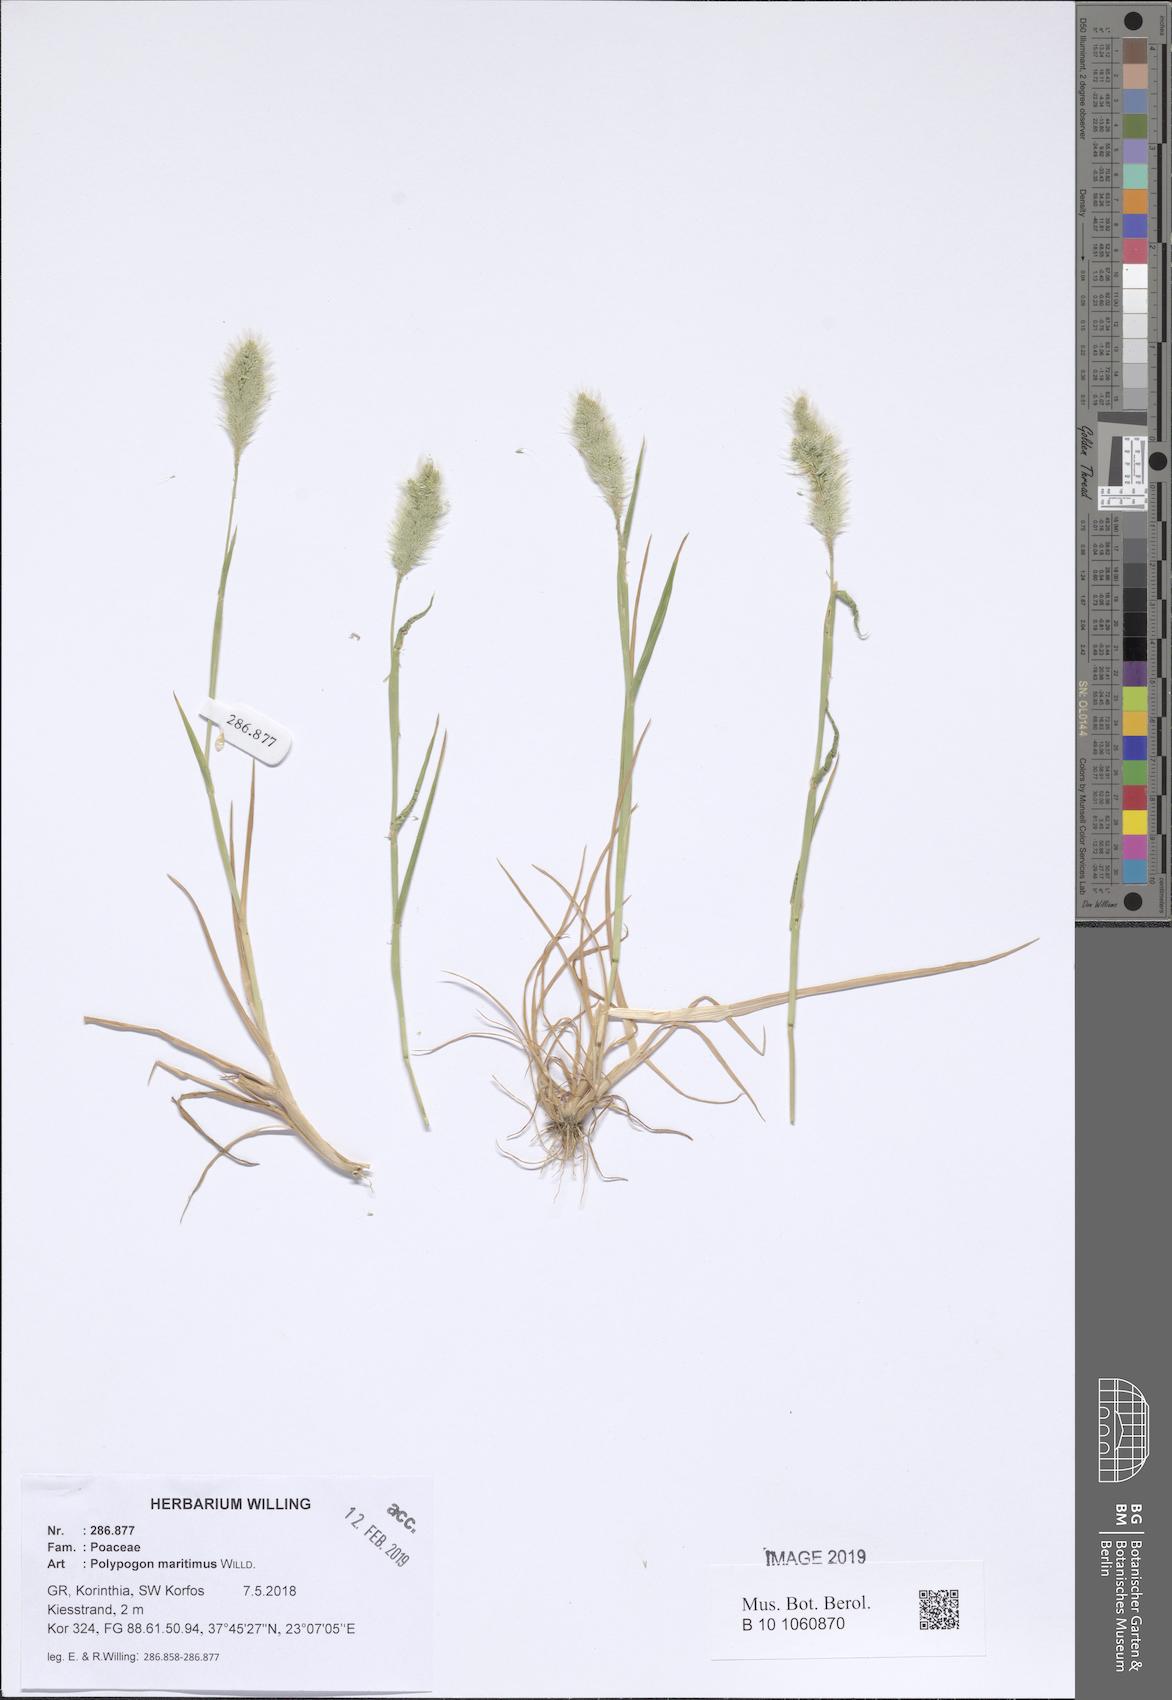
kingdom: Plantae
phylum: Tracheophyta
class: Liliopsida
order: Poales
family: Poaceae
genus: Polypogon
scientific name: Polypogon maritimus
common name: Mediterranean rabbitsfoot grass
